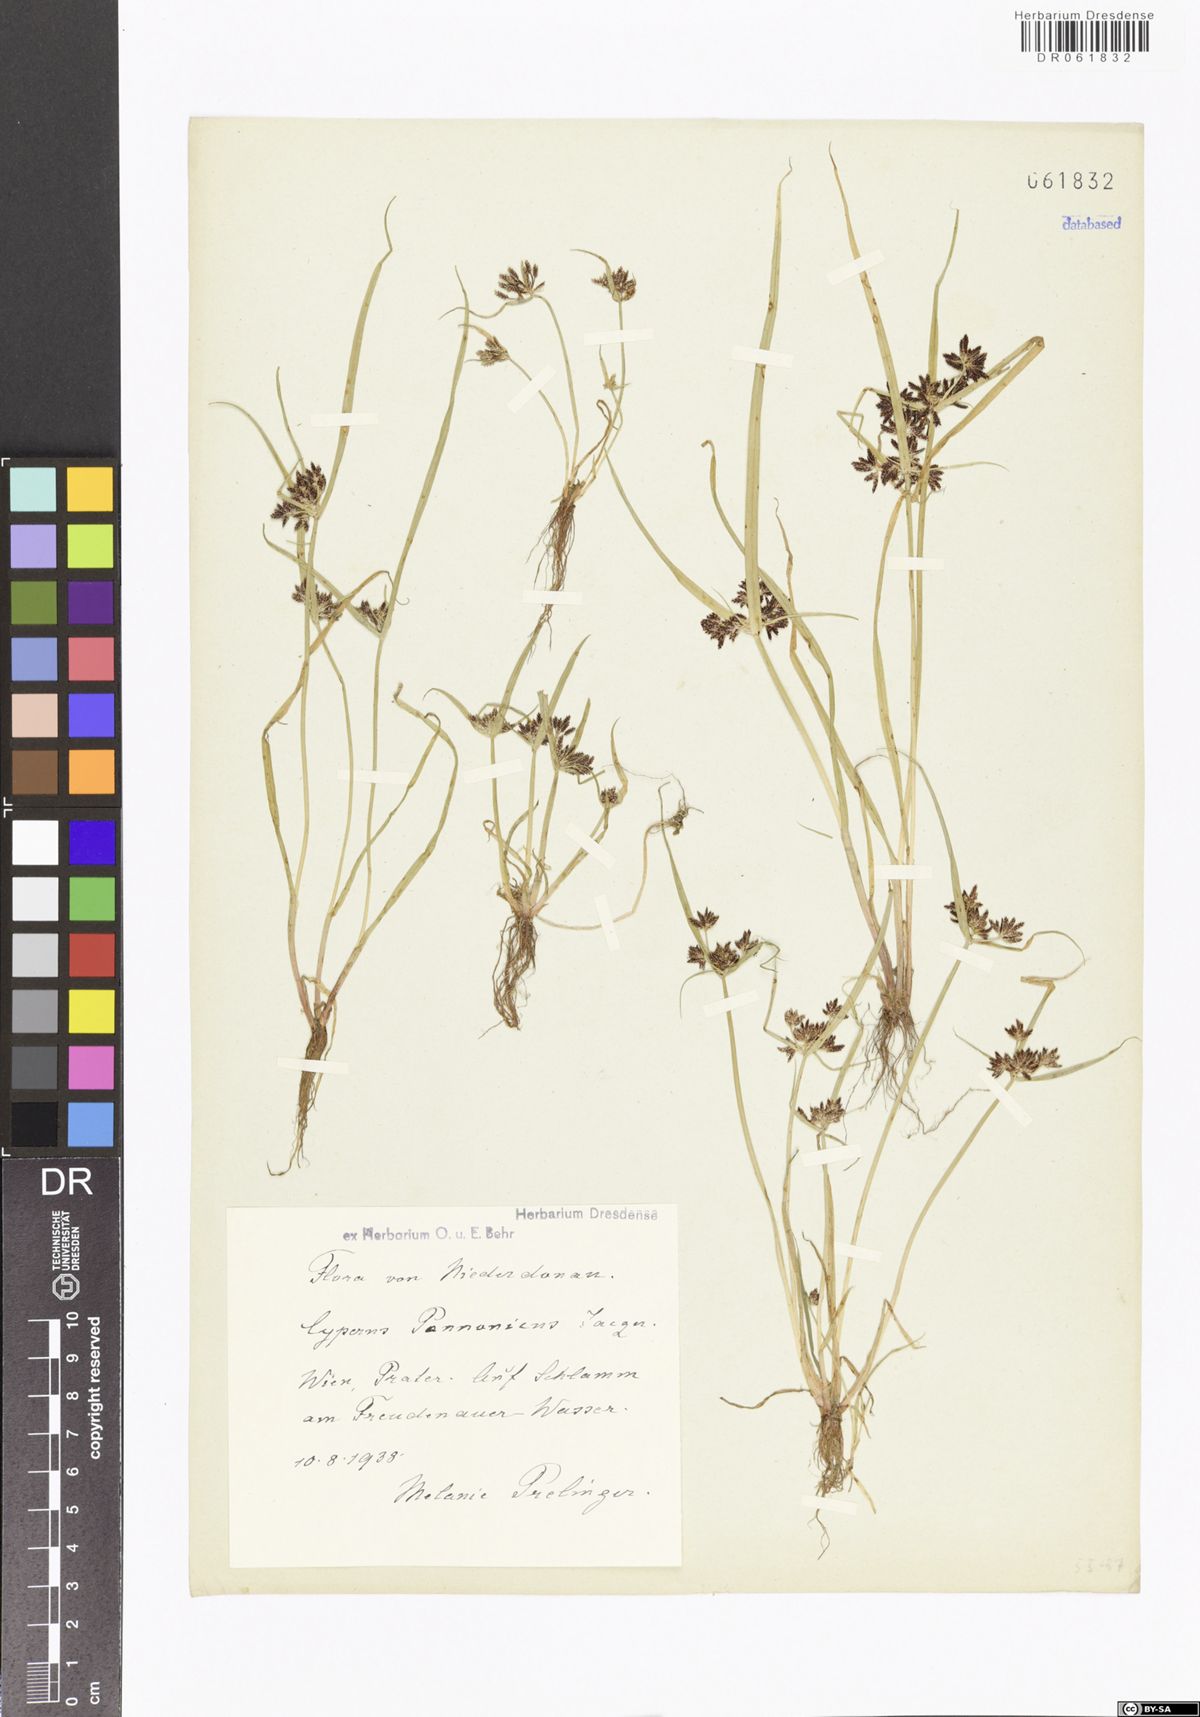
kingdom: Plantae
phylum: Tracheophyta
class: Liliopsida
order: Poales
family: Cyperaceae
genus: Cyperus
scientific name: Cyperus pannonicus
